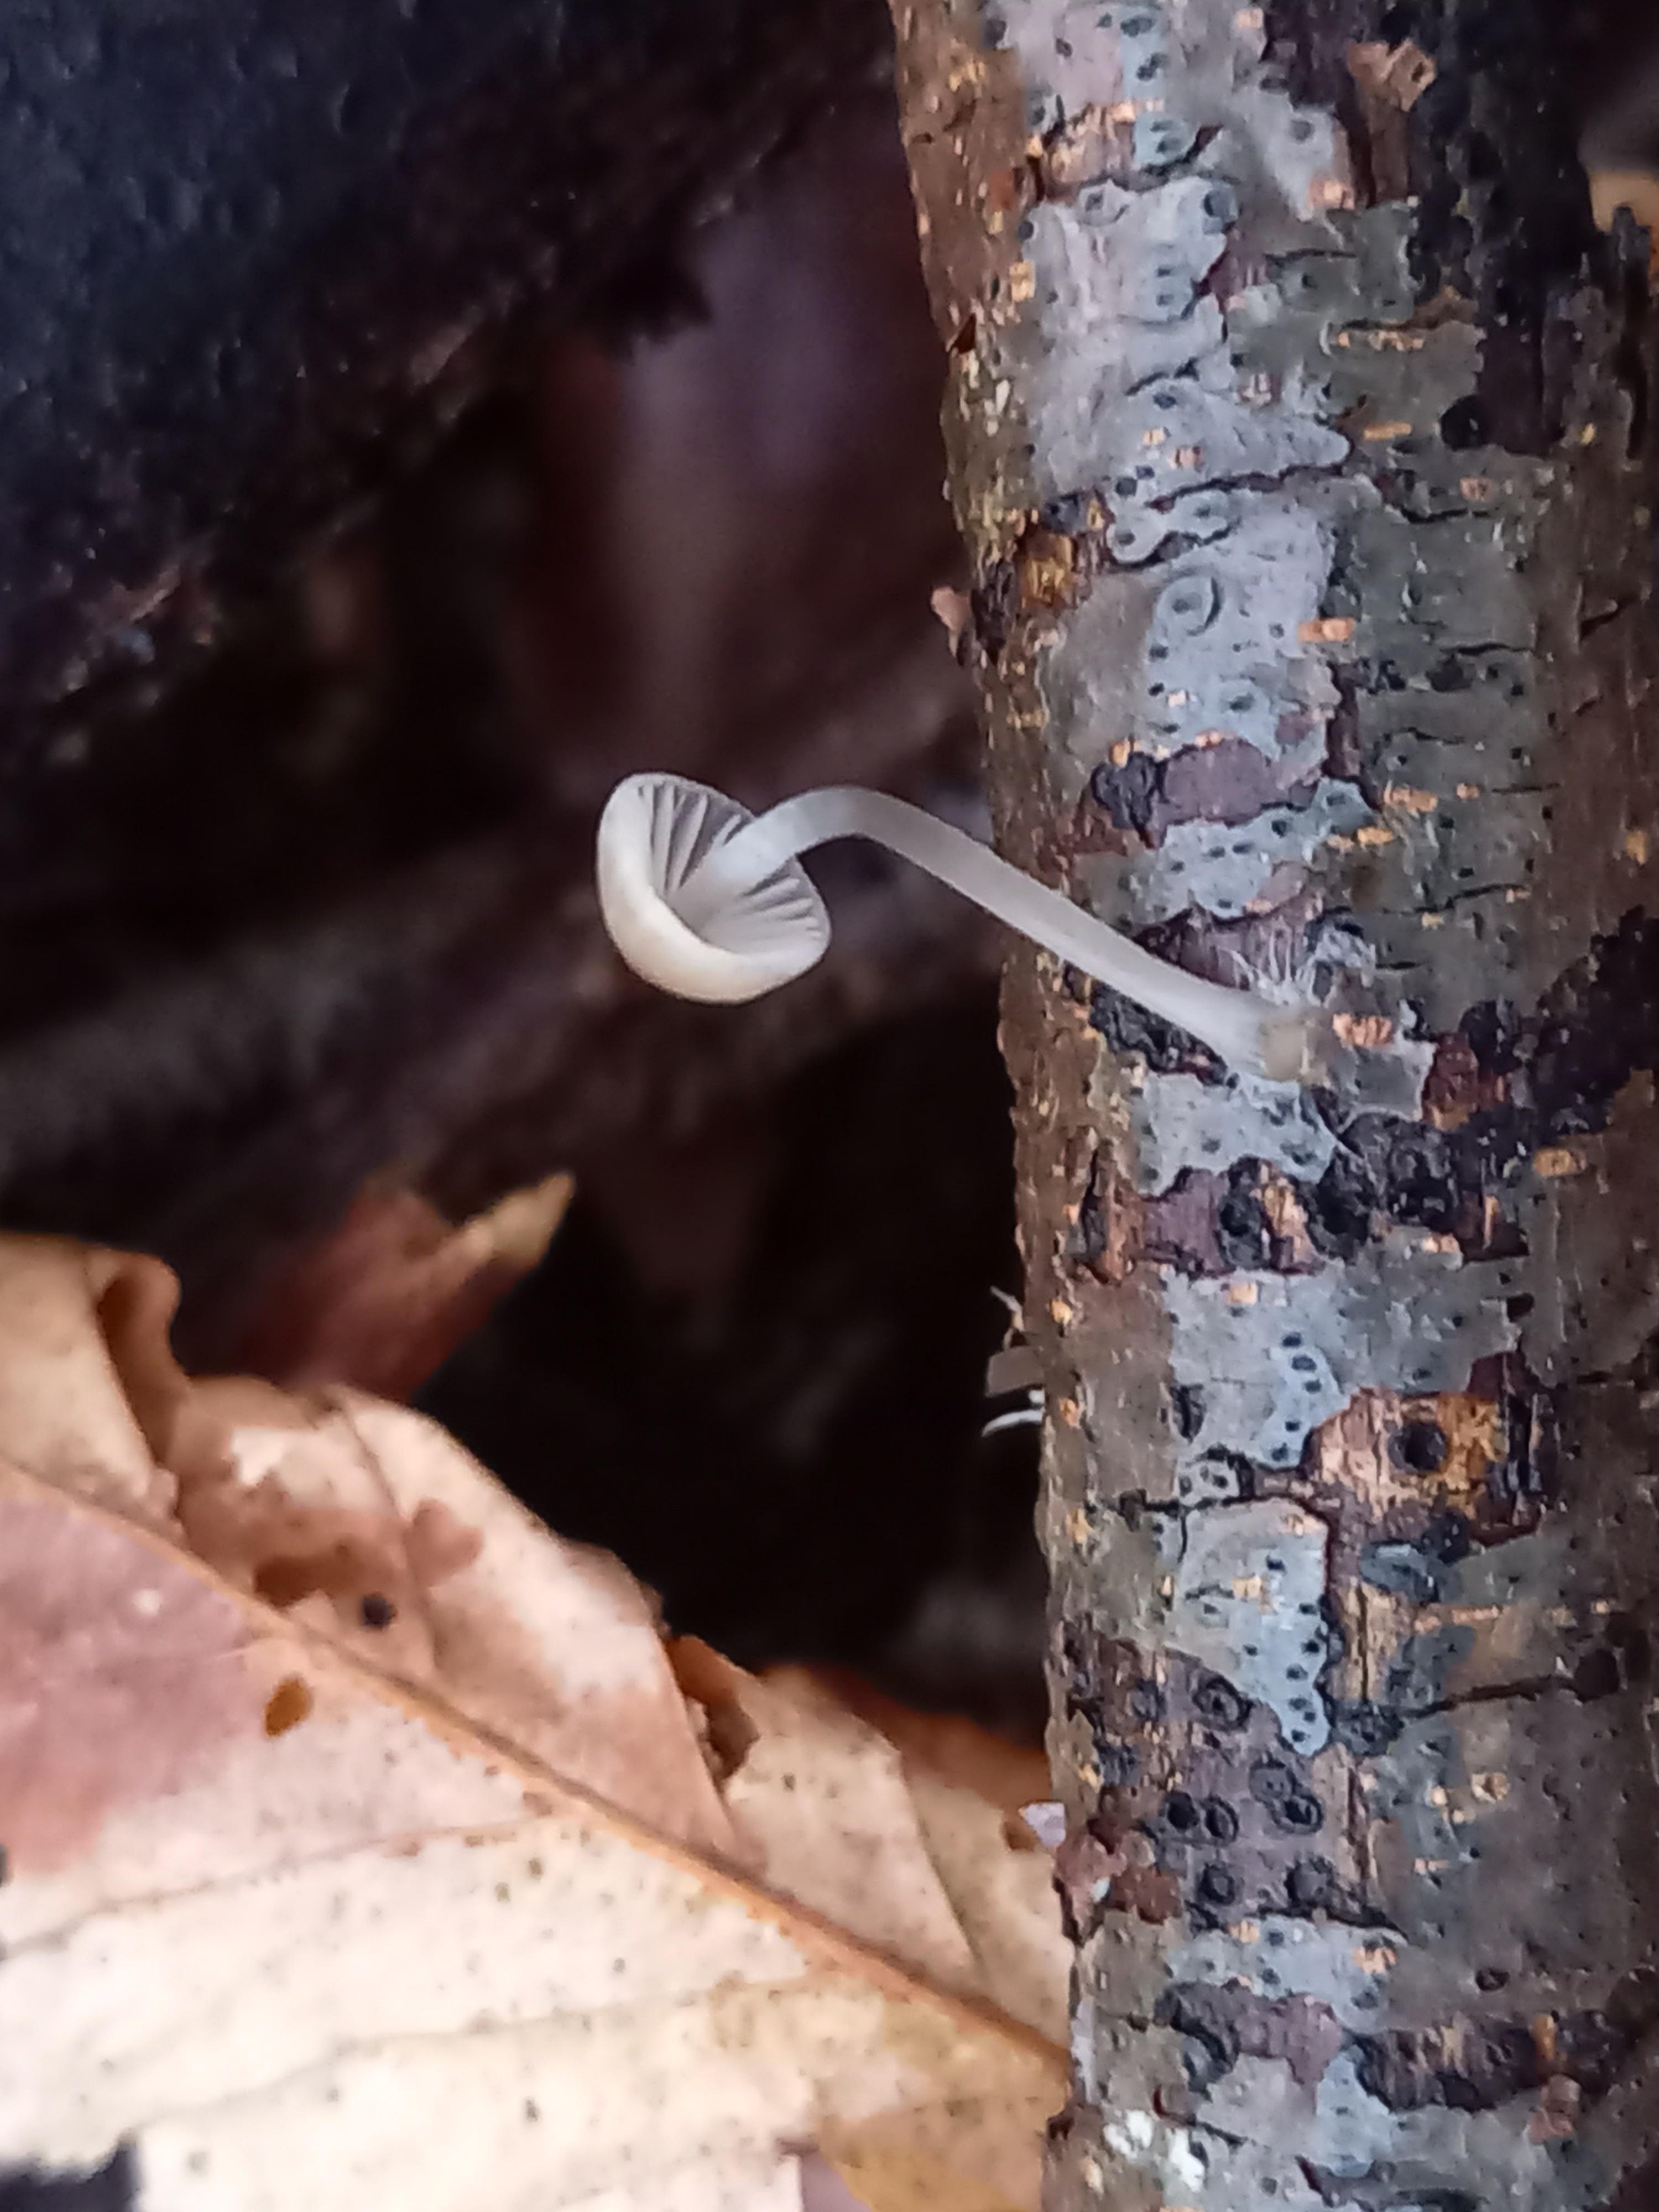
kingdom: Fungi
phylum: Basidiomycota
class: Agaricomycetes
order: Agaricales
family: Mycenaceae
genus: Mycena
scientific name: Mycena
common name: huesvamp
